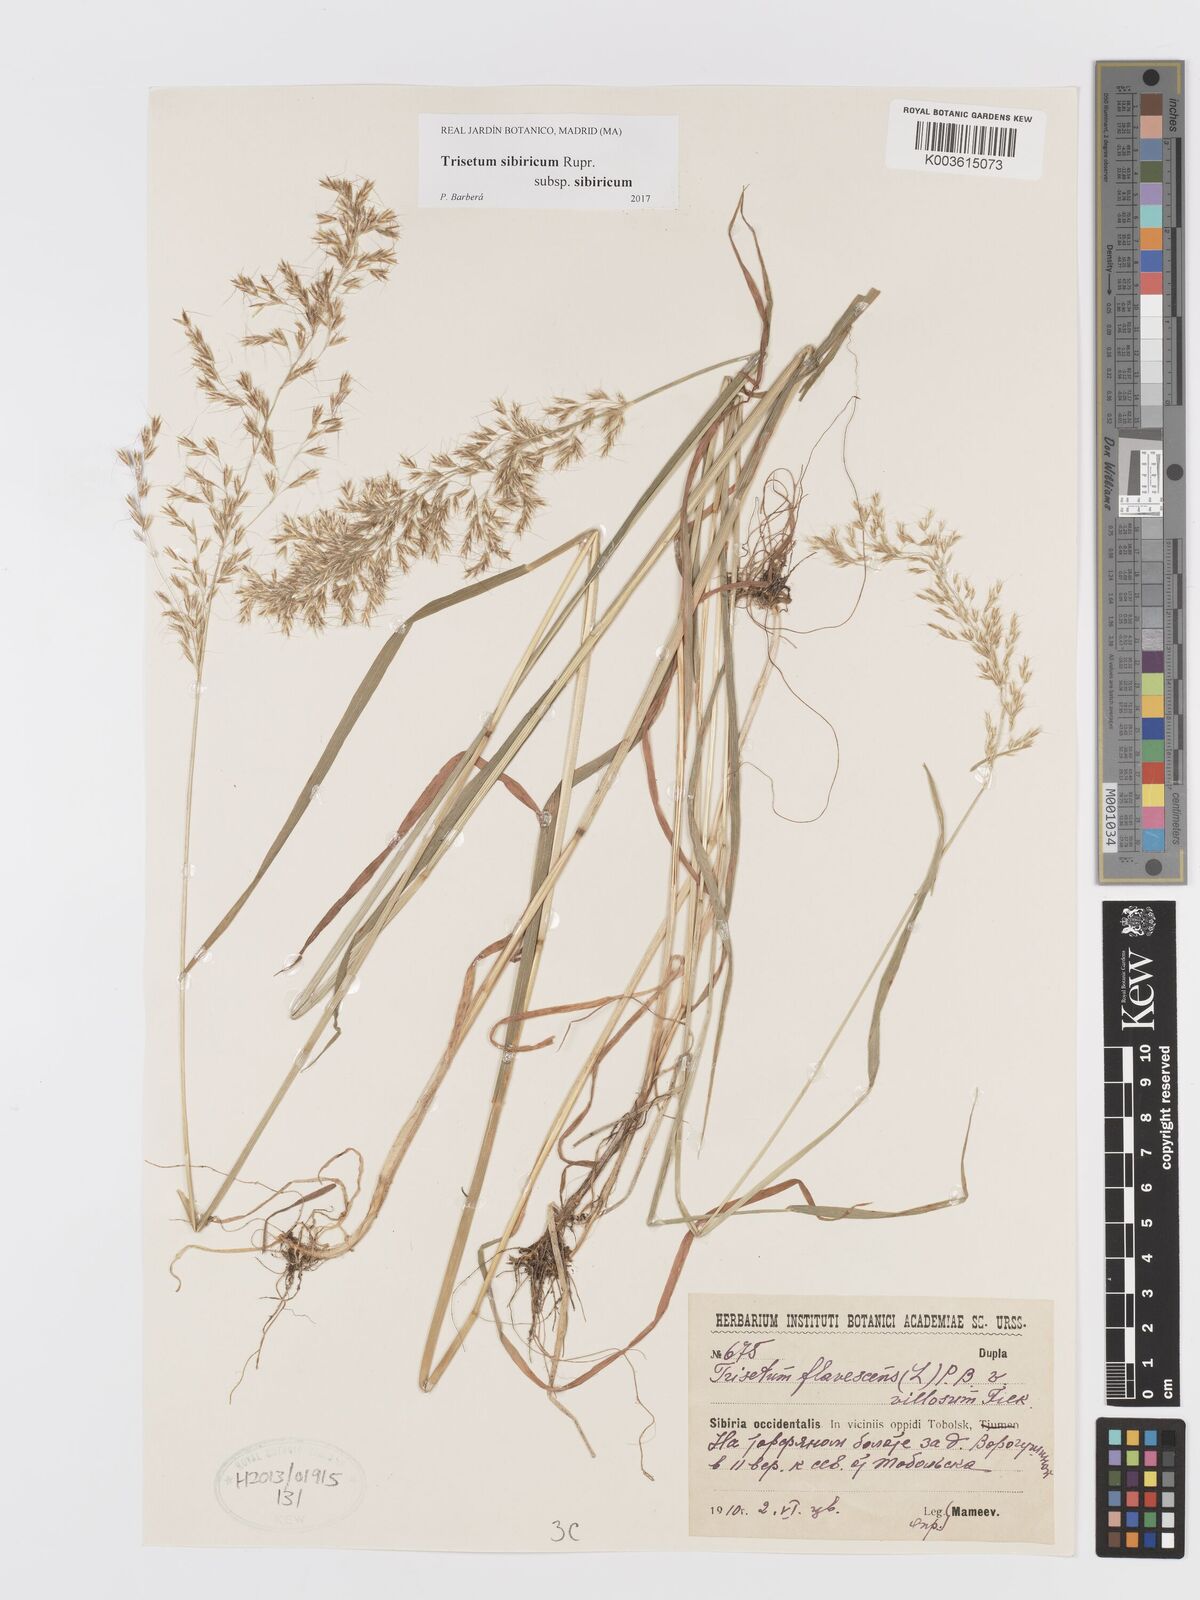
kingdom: Plantae
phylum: Tracheophyta
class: Liliopsida
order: Poales
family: Poaceae
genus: Sibirotrisetum
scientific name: Sibirotrisetum sibiricum
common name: Siberian false oat
